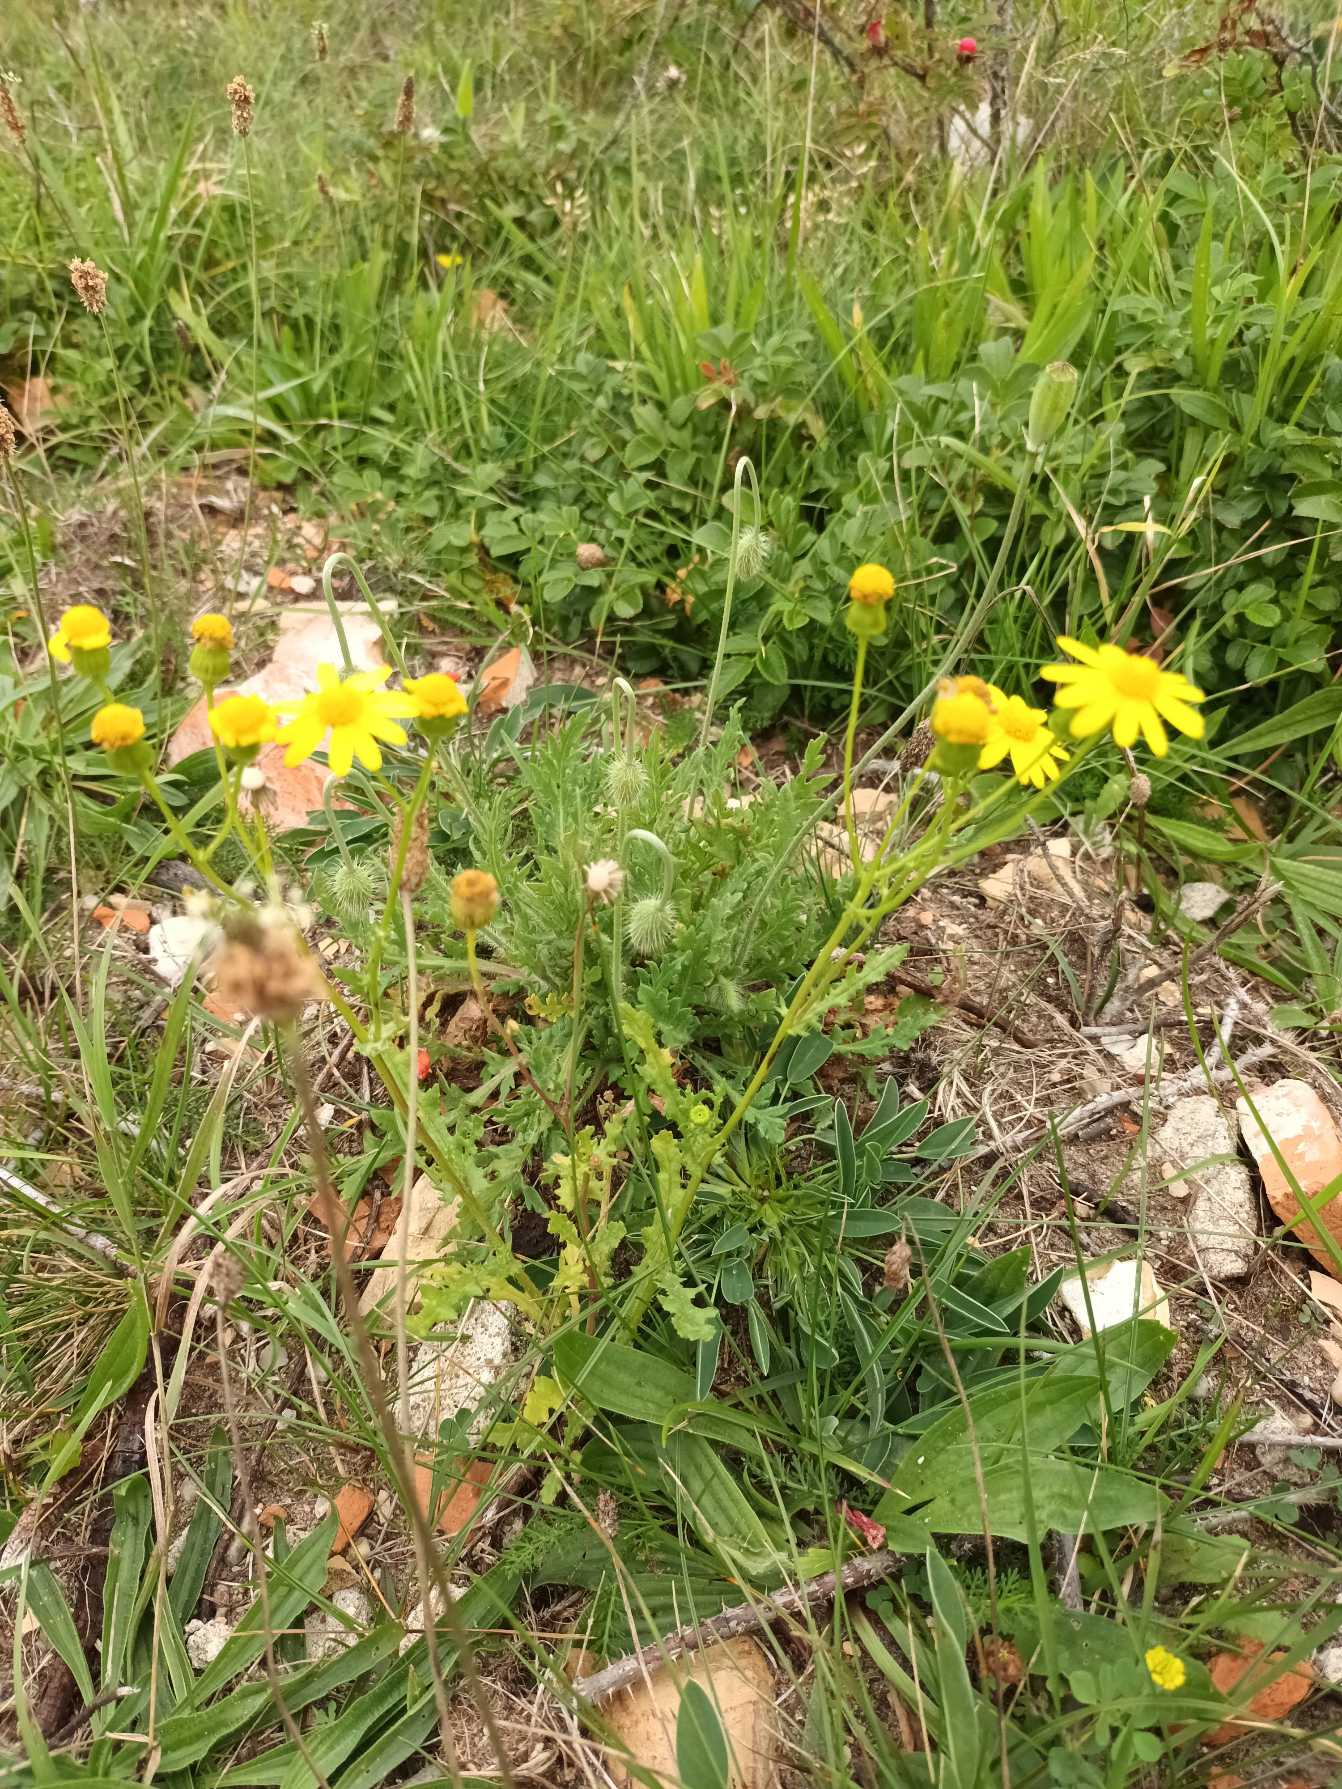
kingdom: Plantae
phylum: Tracheophyta
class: Magnoliopsida
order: Asterales
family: Asteraceae
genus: Senecio
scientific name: Senecio leucanthemifolius
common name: Vår-brandbæger
